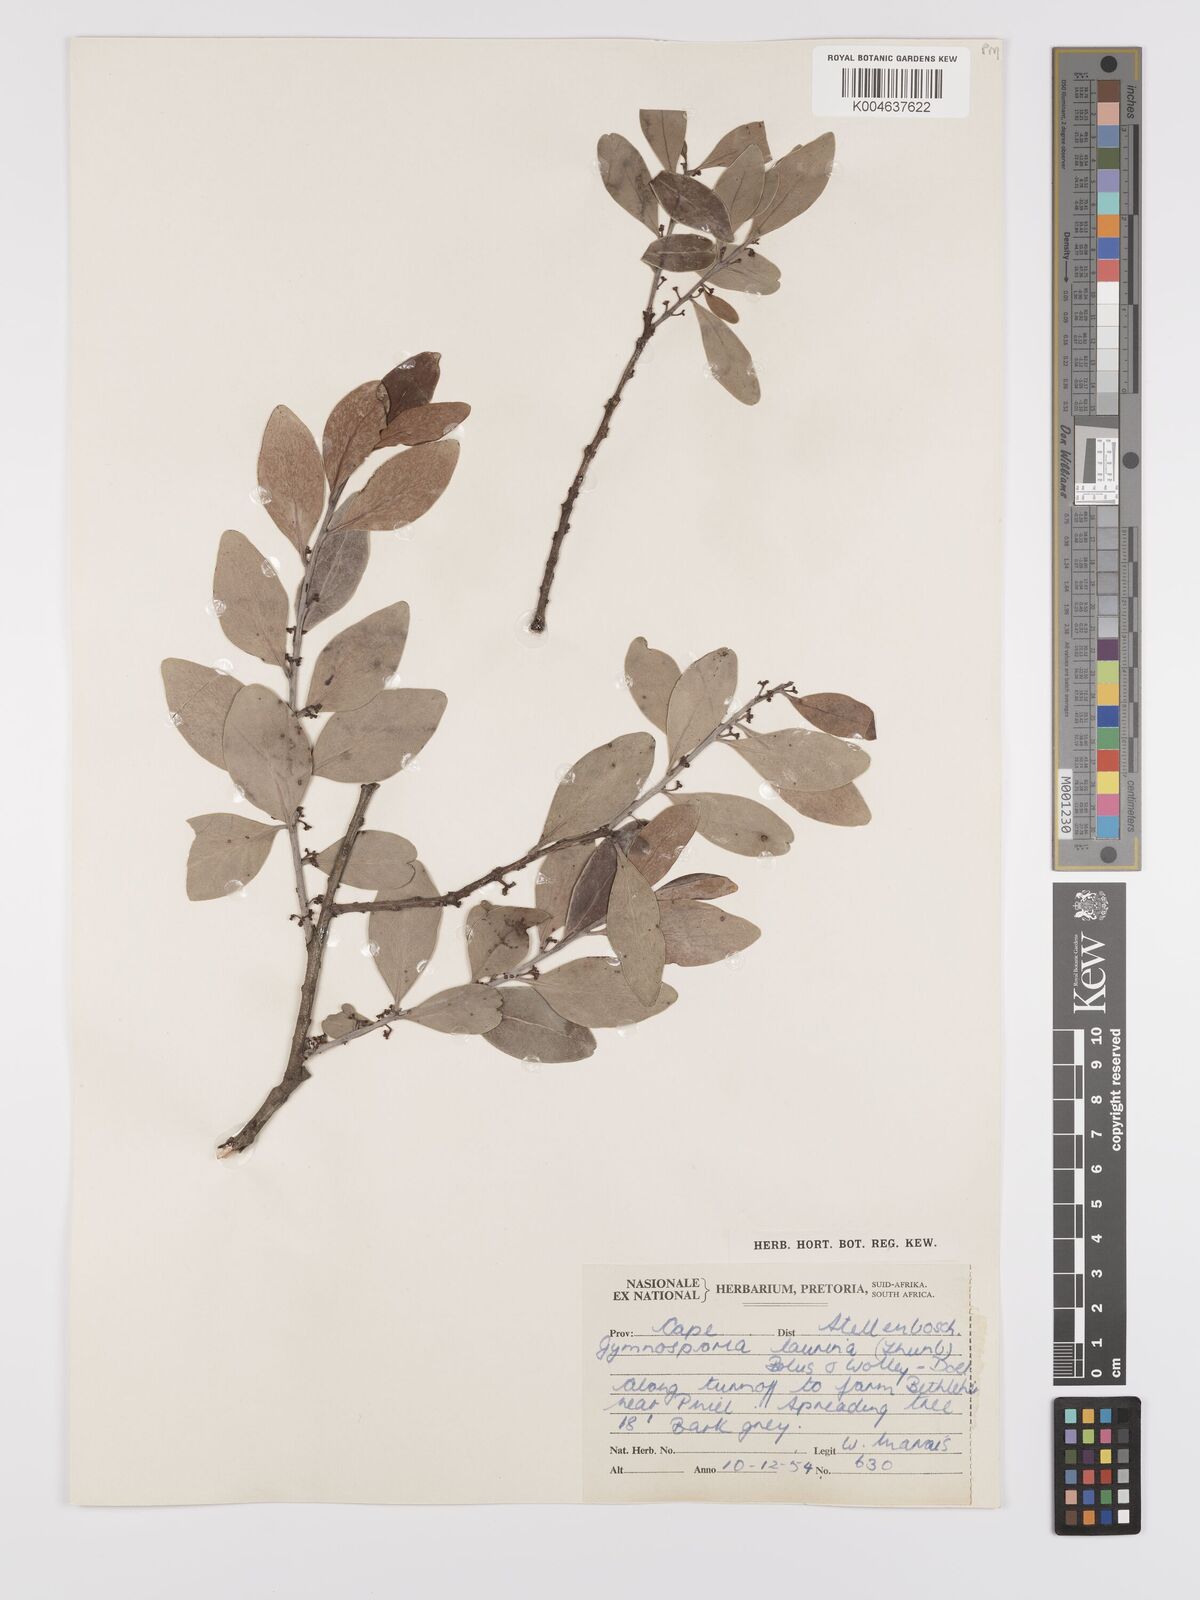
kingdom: Plantae
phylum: Tracheophyta
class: Magnoliopsida
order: Celastrales
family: Celastraceae
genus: Monteverdia
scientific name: Monteverdia laurina
